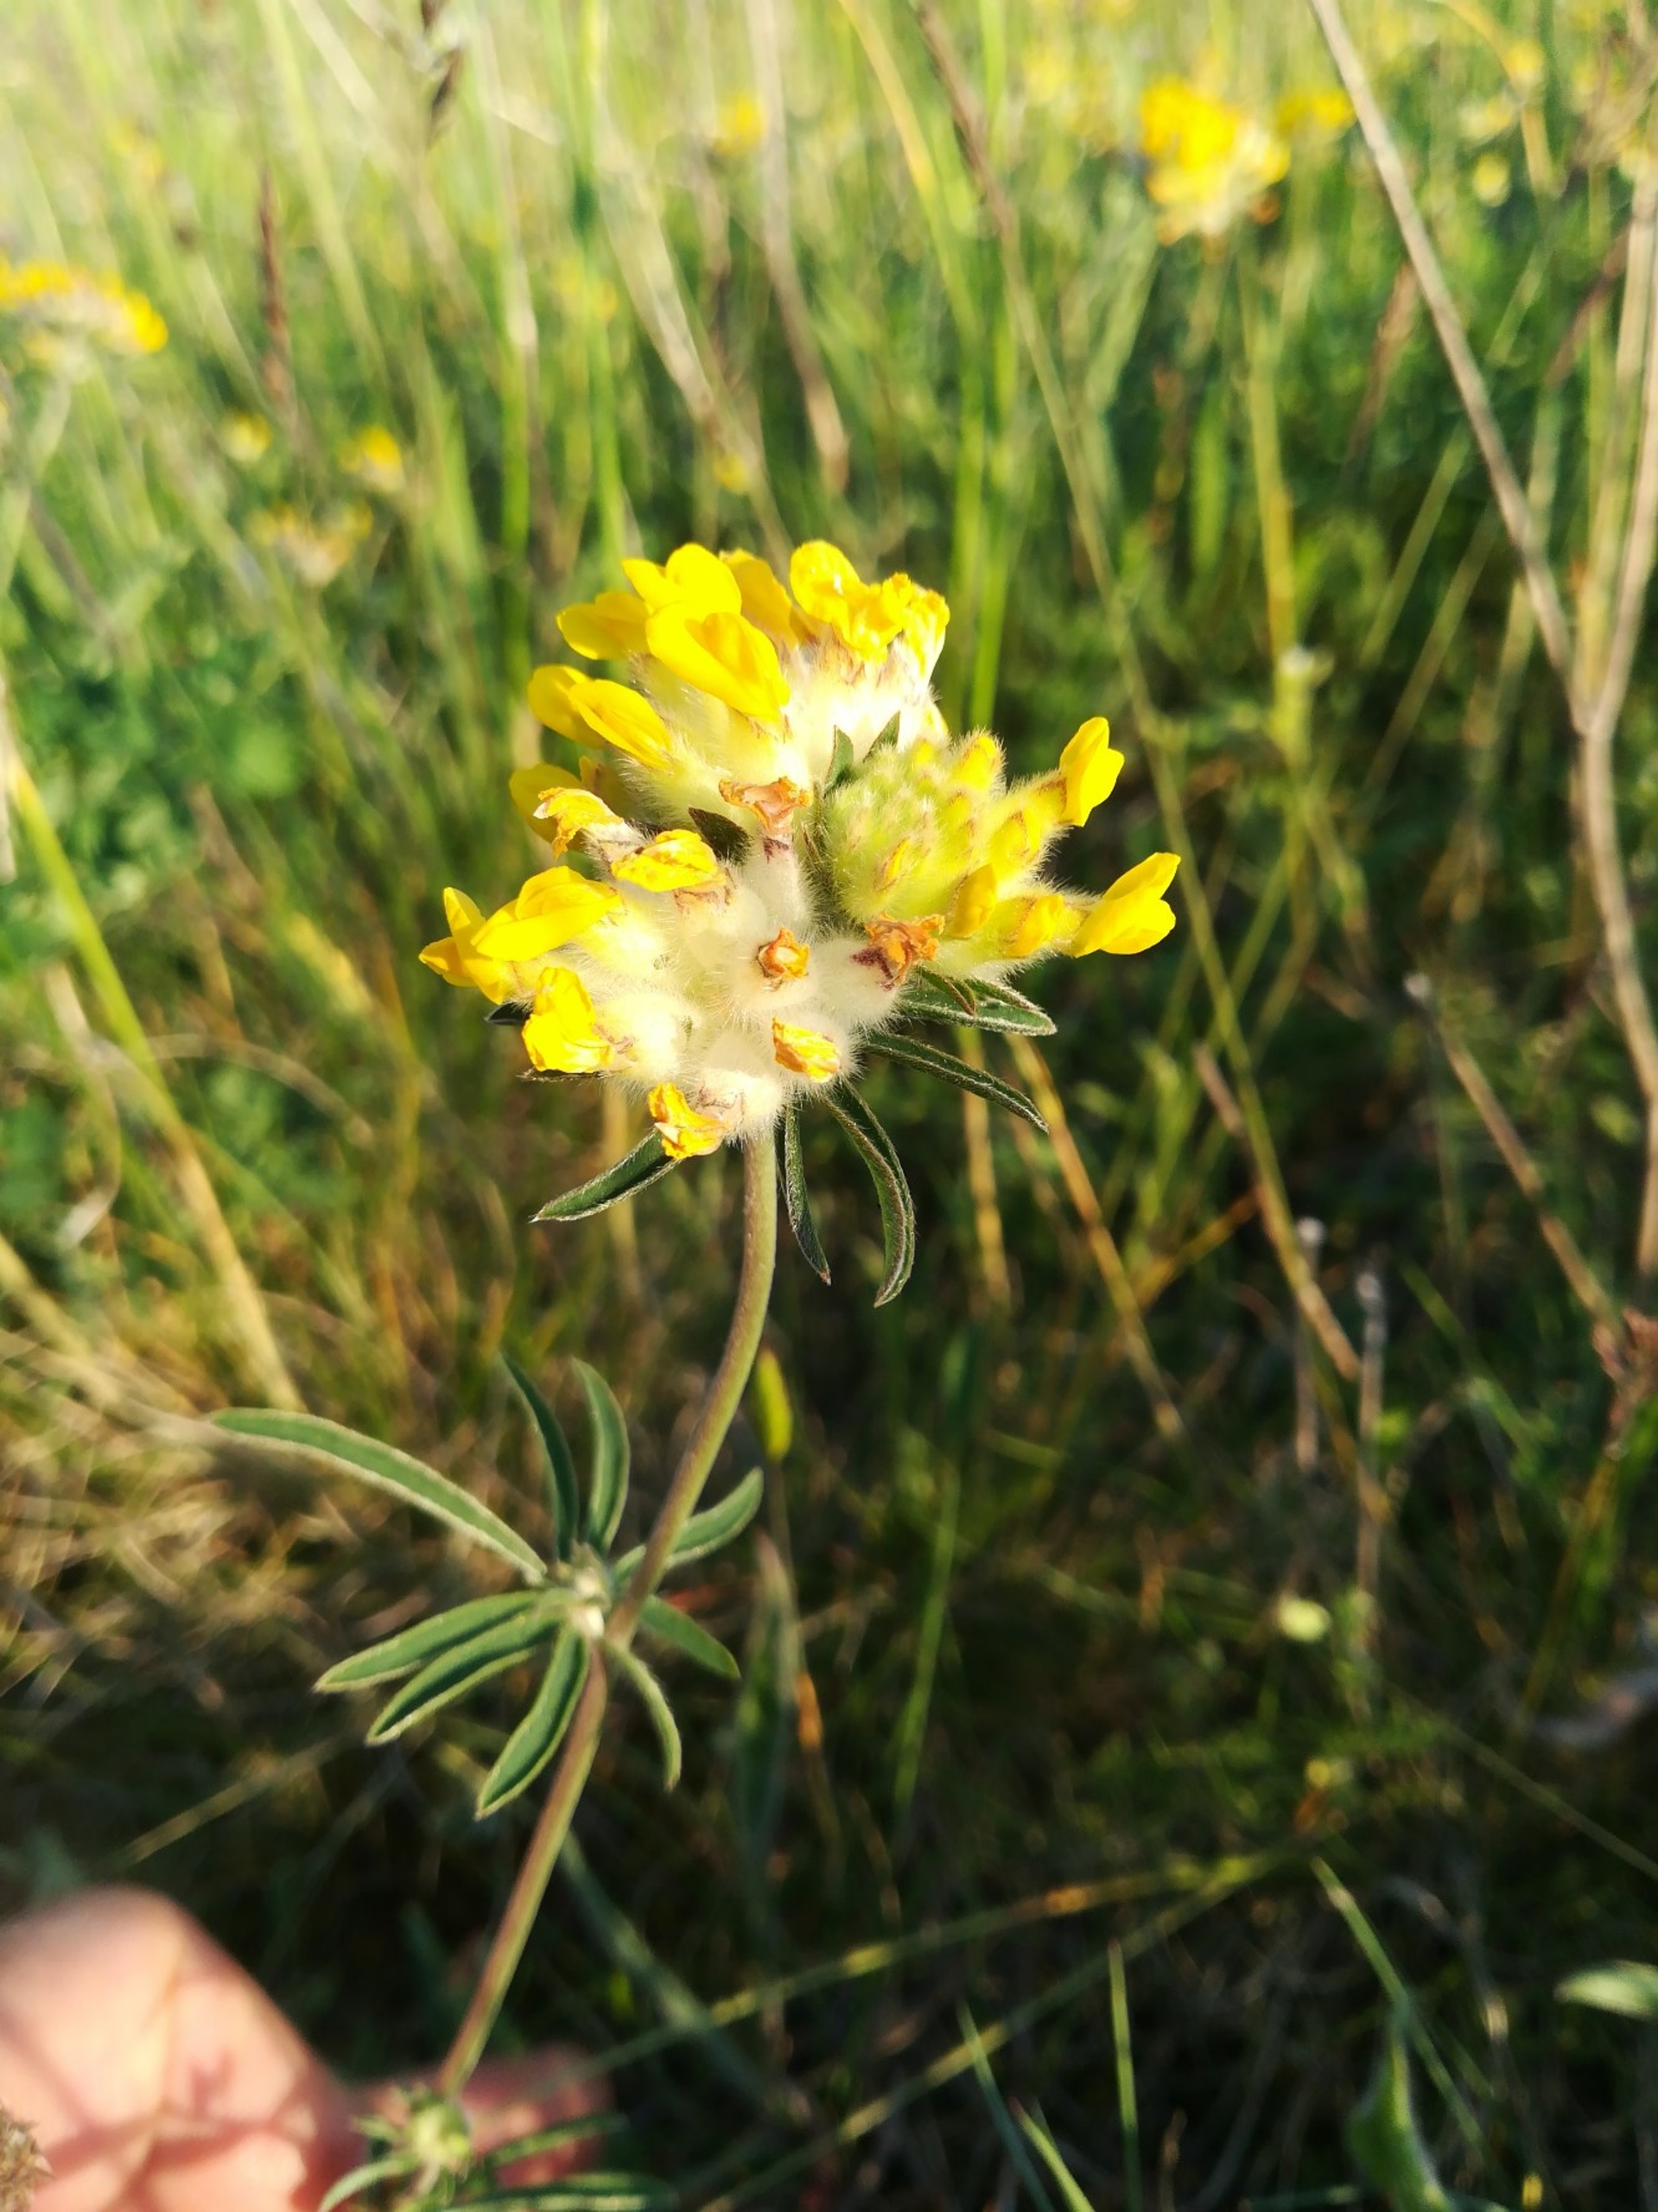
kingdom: Plantae
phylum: Tracheophyta
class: Magnoliopsida
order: Fabales
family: Fabaceae
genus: Anthyllis
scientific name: Anthyllis vulneraria
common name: Rundbælg
